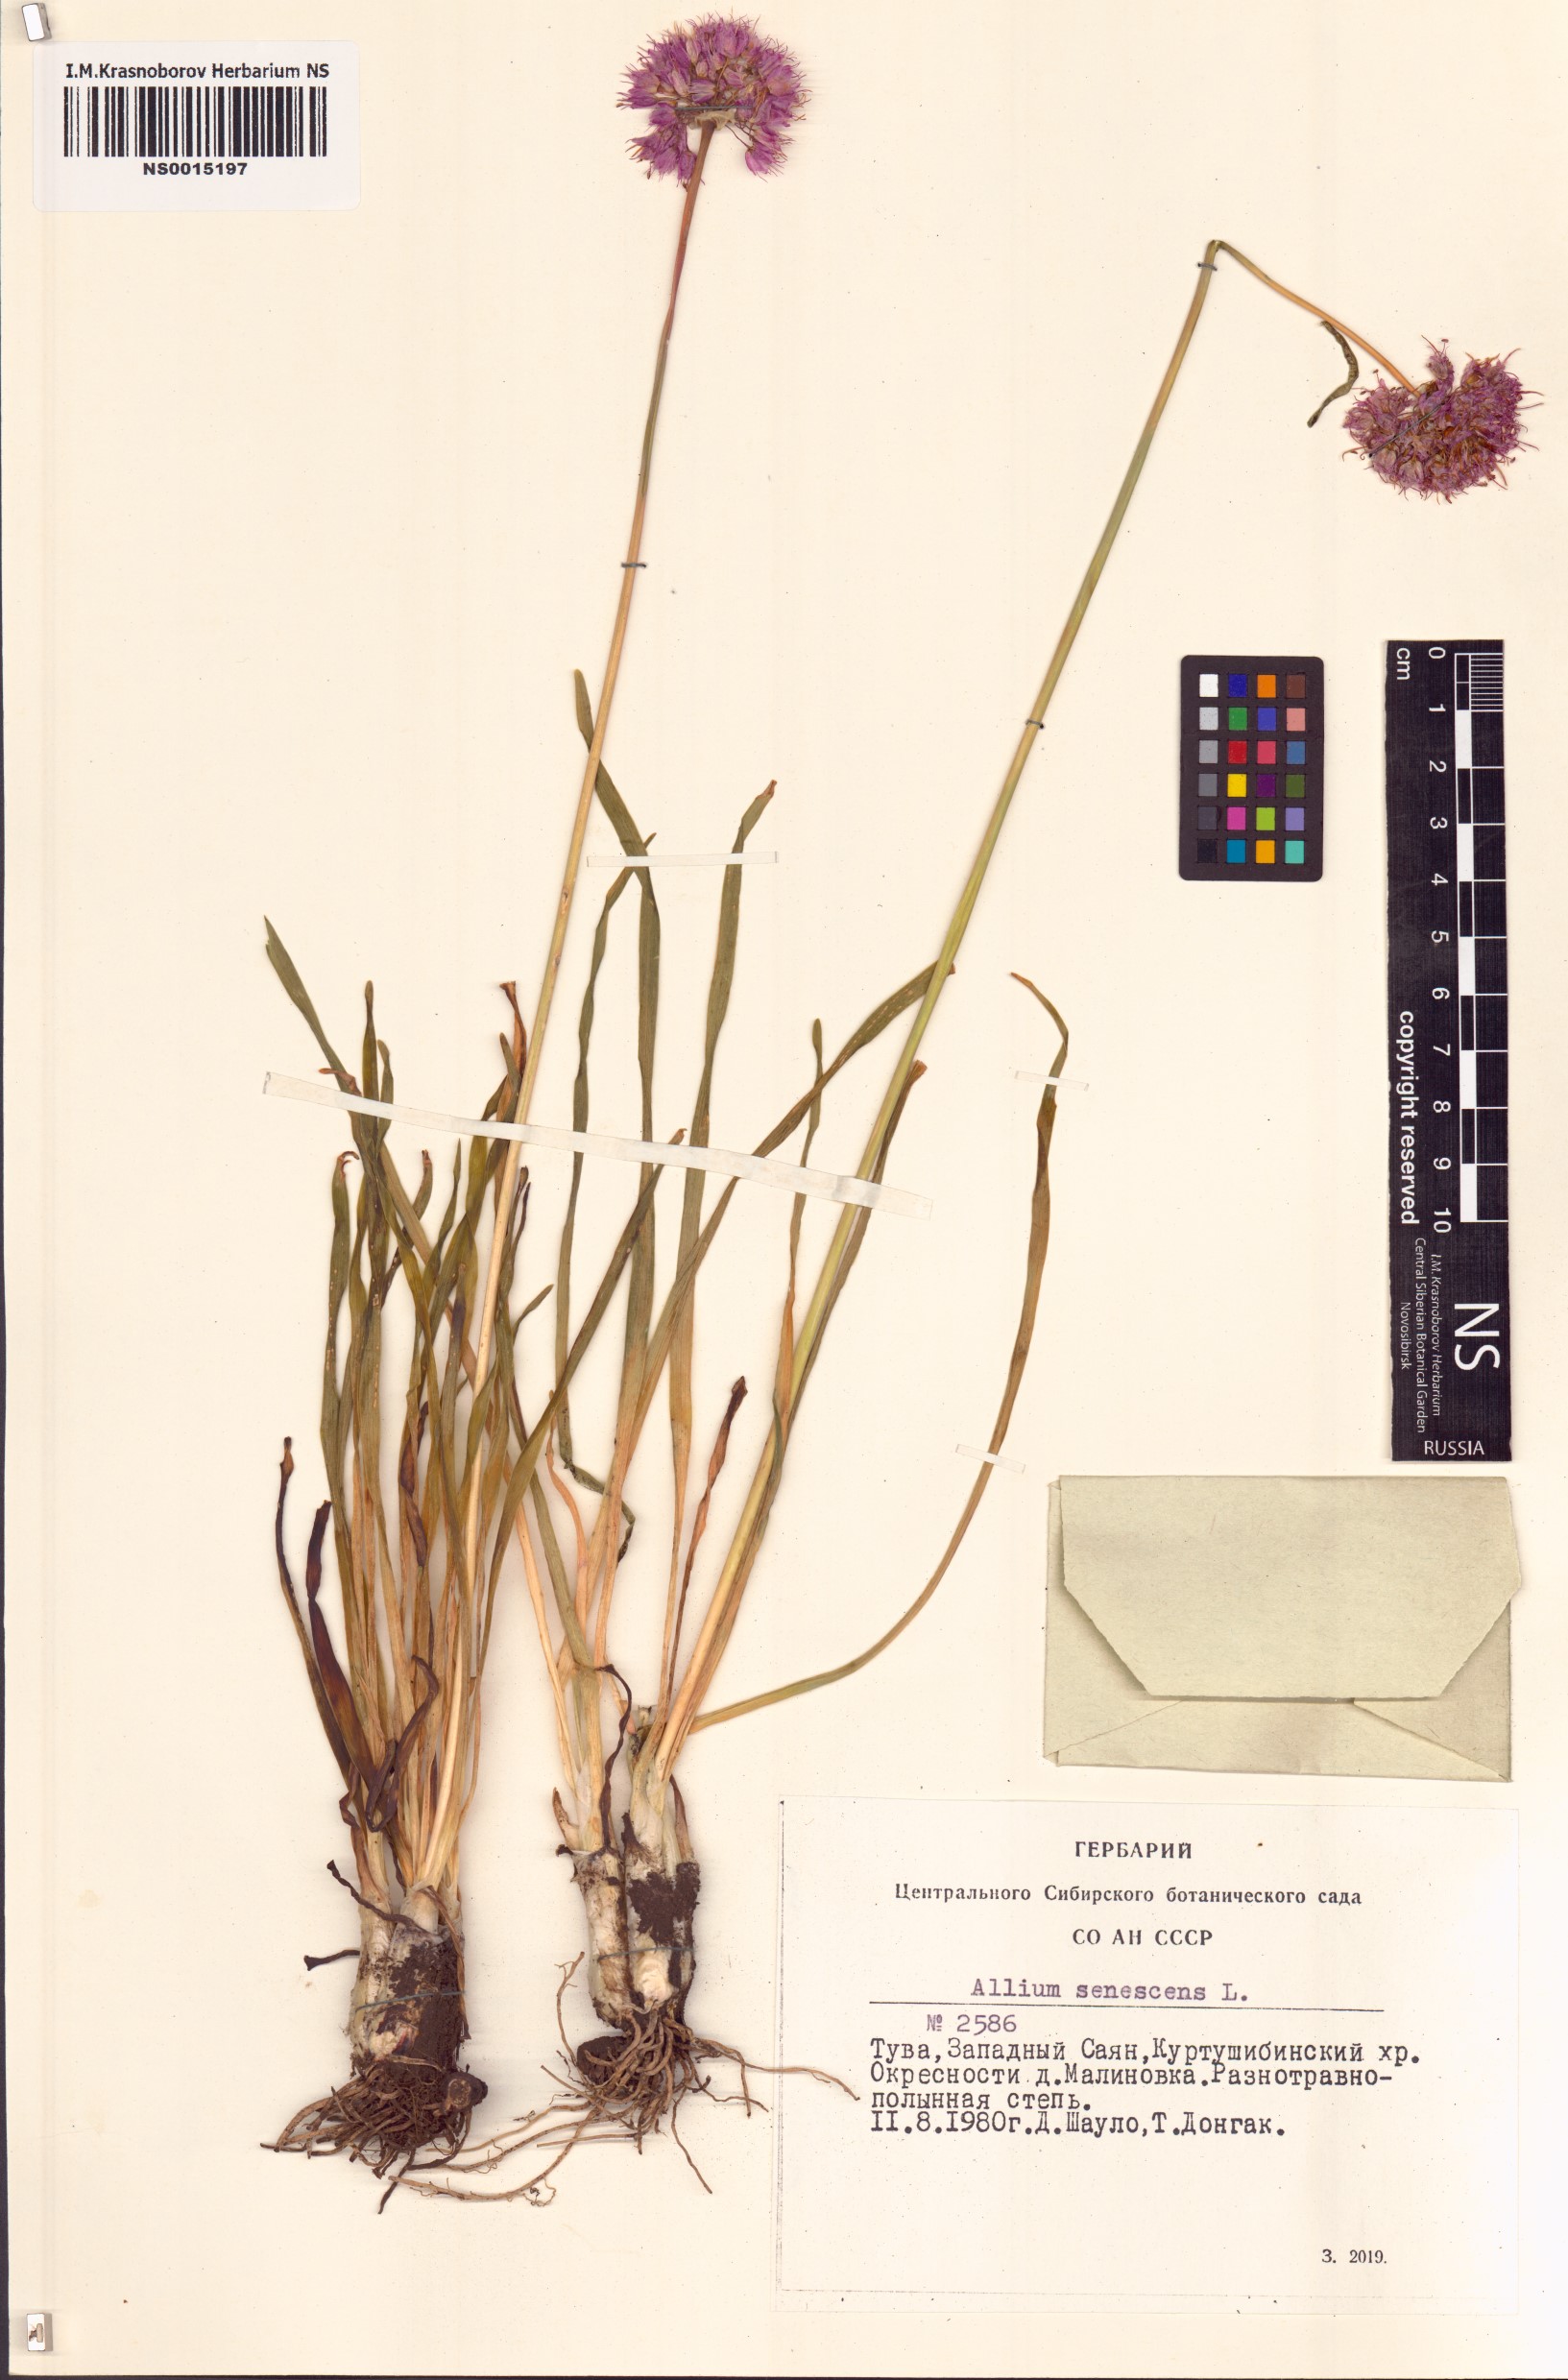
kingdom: Plantae
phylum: Tracheophyta
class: Liliopsida
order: Asparagales
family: Amaryllidaceae
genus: Allium
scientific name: Allium senescens
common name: German garlic
